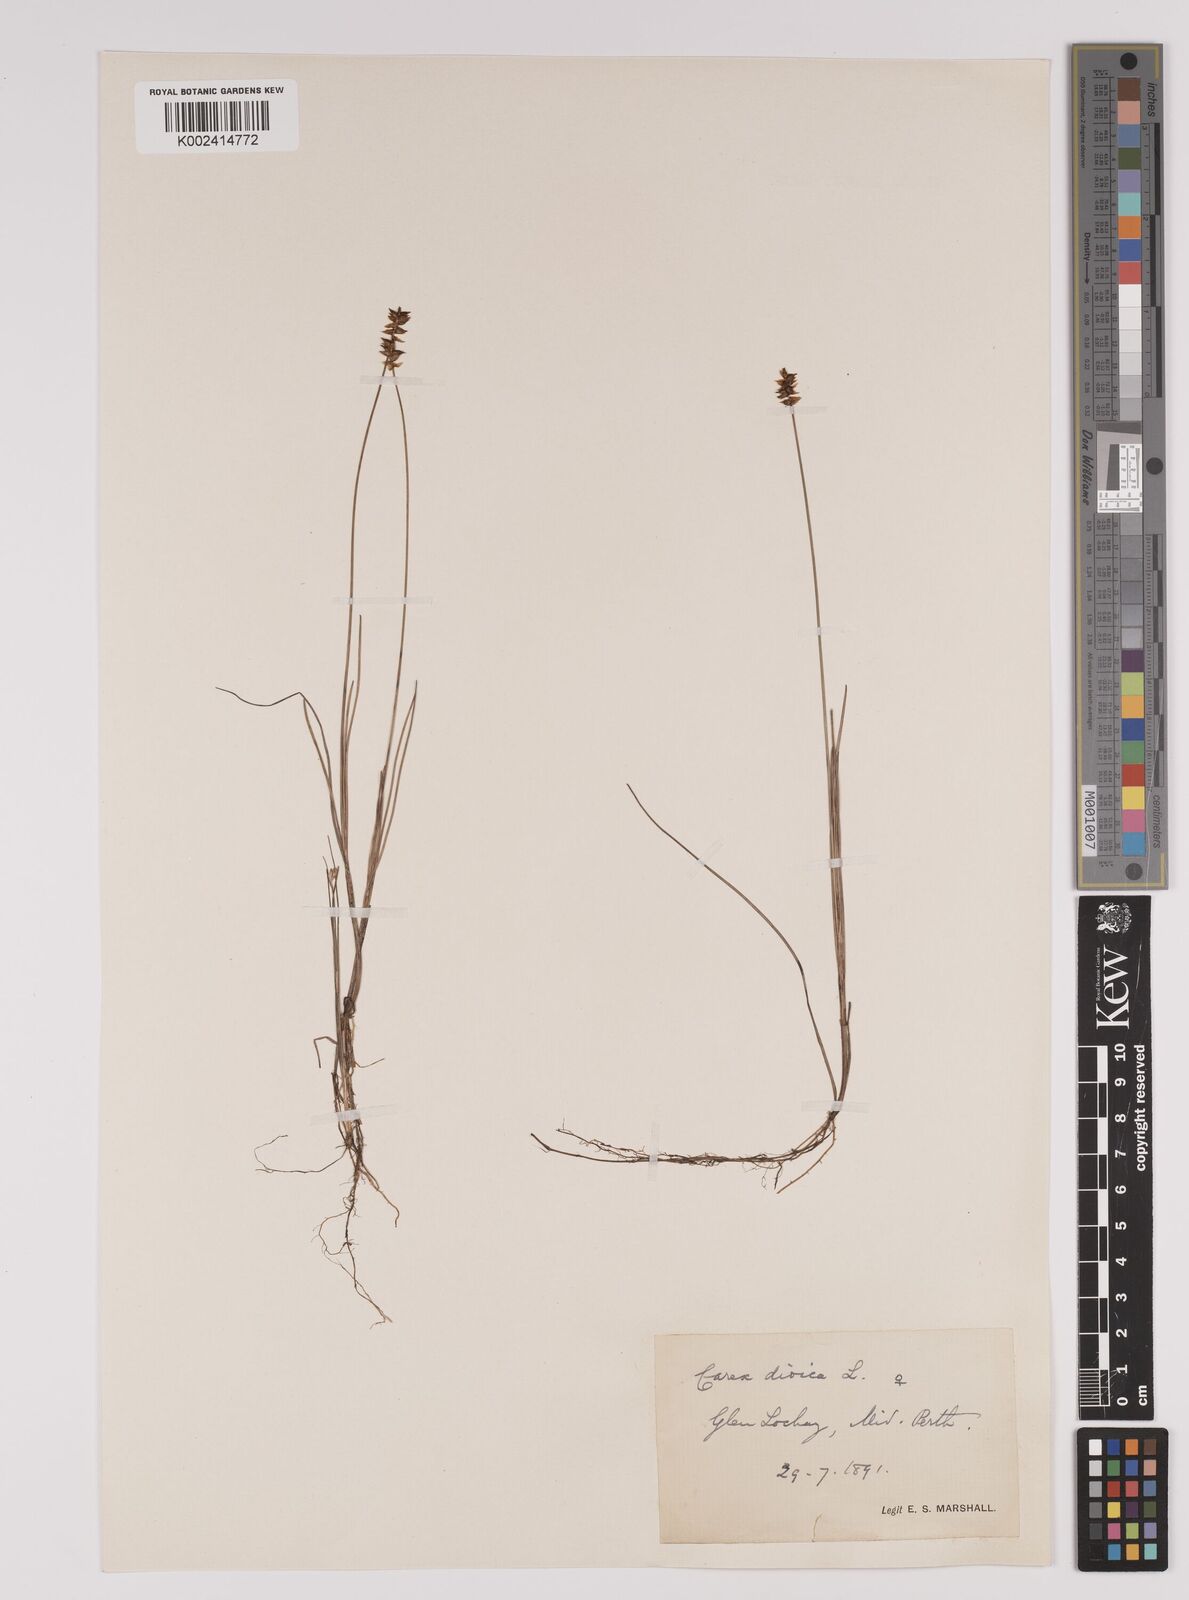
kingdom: Plantae
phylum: Tracheophyta
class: Liliopsida
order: Poales
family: Cyperaceae
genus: Carex
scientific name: Carex dioica
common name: Dioecious sedge
